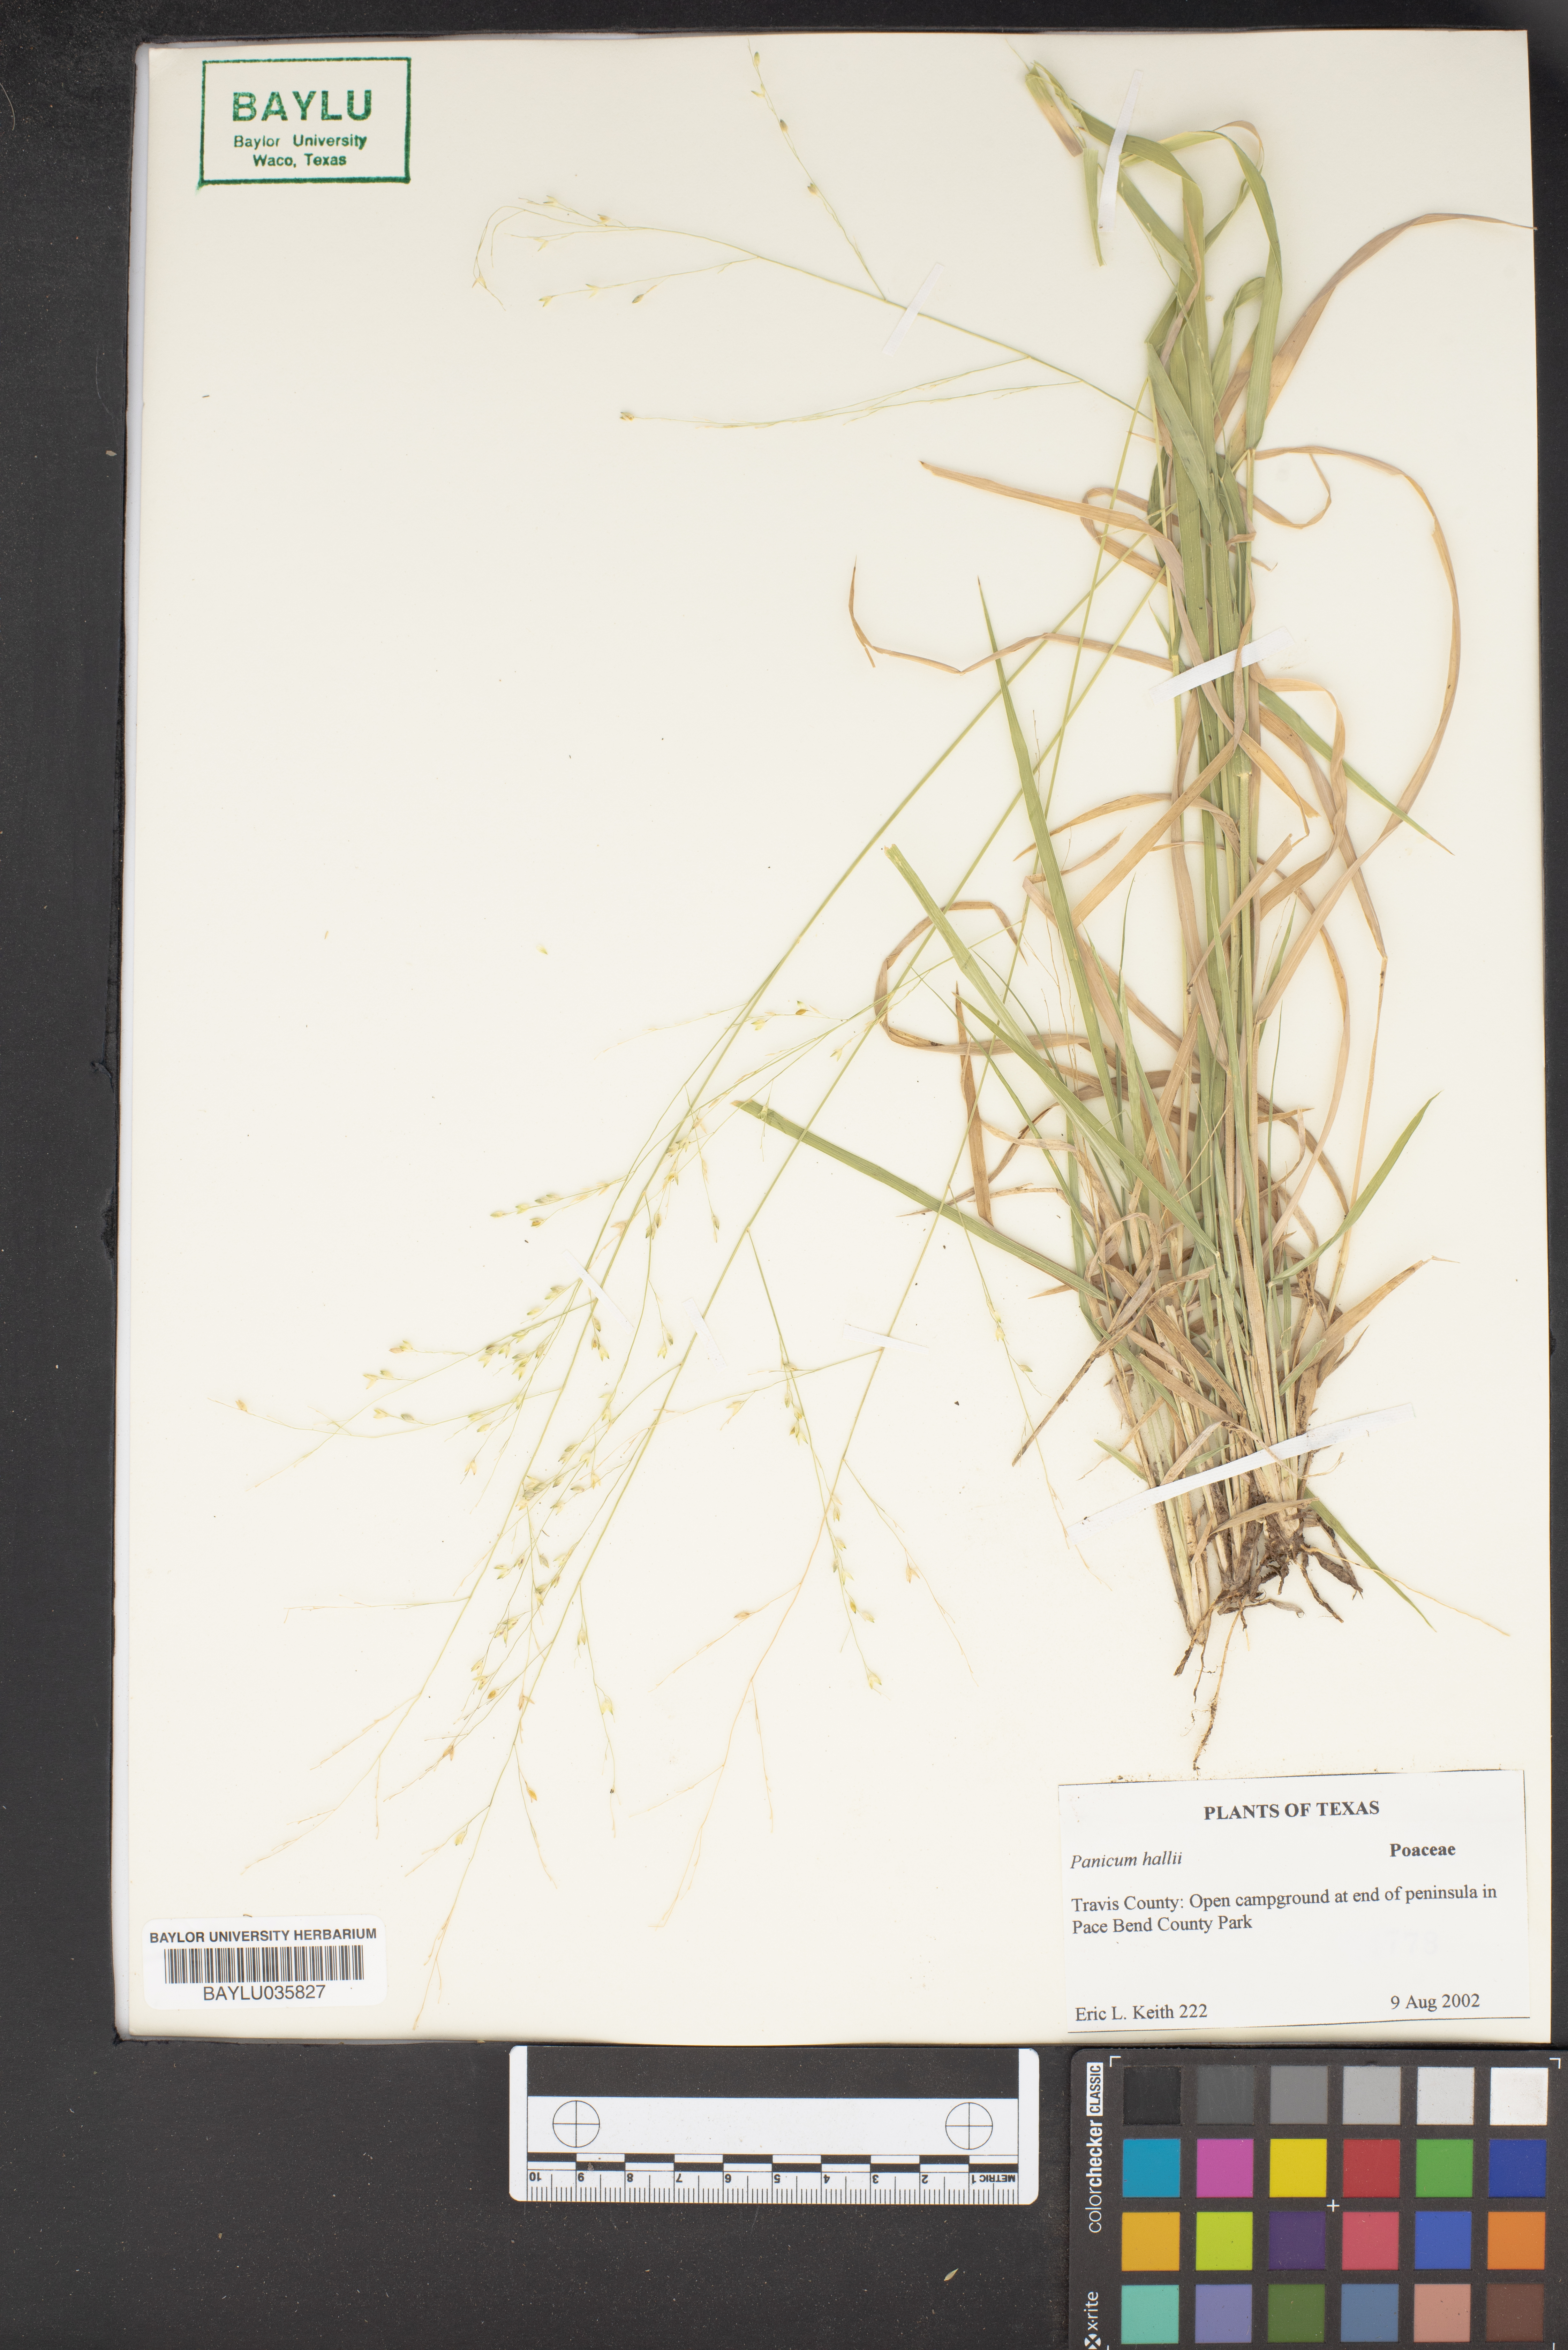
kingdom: Plantae
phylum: Tracheophyta
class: Liliopsida
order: Poales
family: Poaceae
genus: Panicum
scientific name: Panicum hallii
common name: Hall's witchgrass
